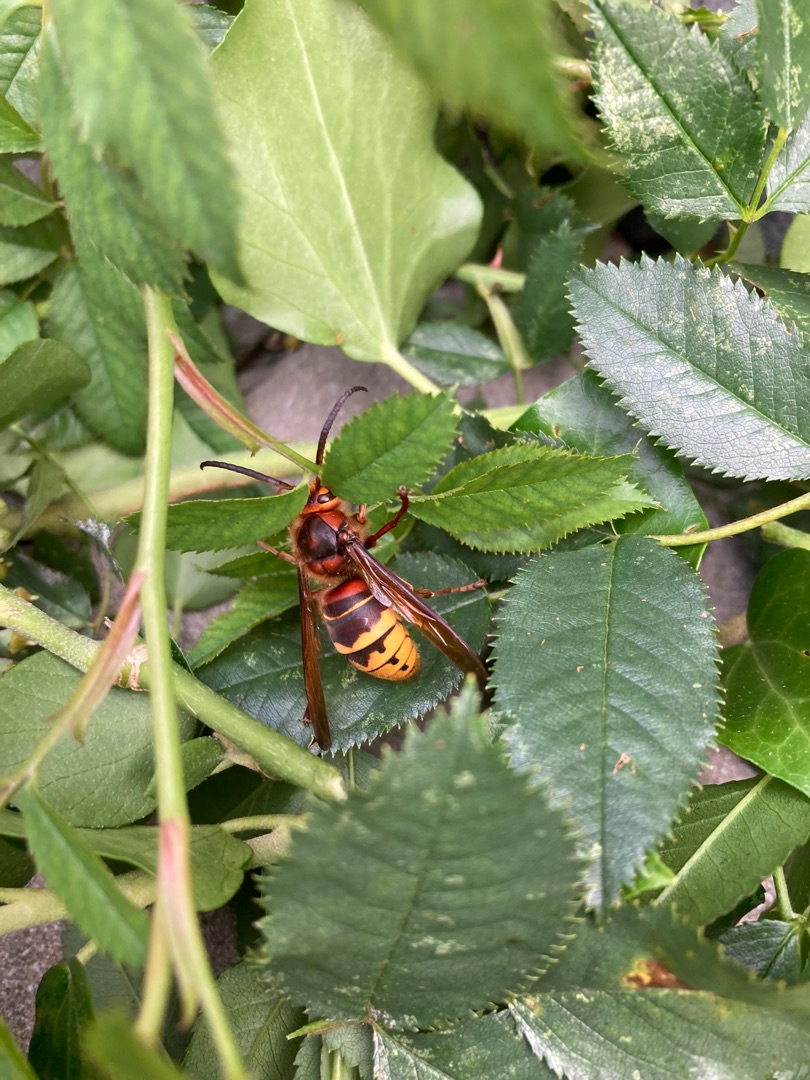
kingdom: Animalia
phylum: Arthropoda
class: Insecta
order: Hymenoptera
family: Vespidae
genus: Vespa
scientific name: Vespa crabro
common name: Stor gedehams
